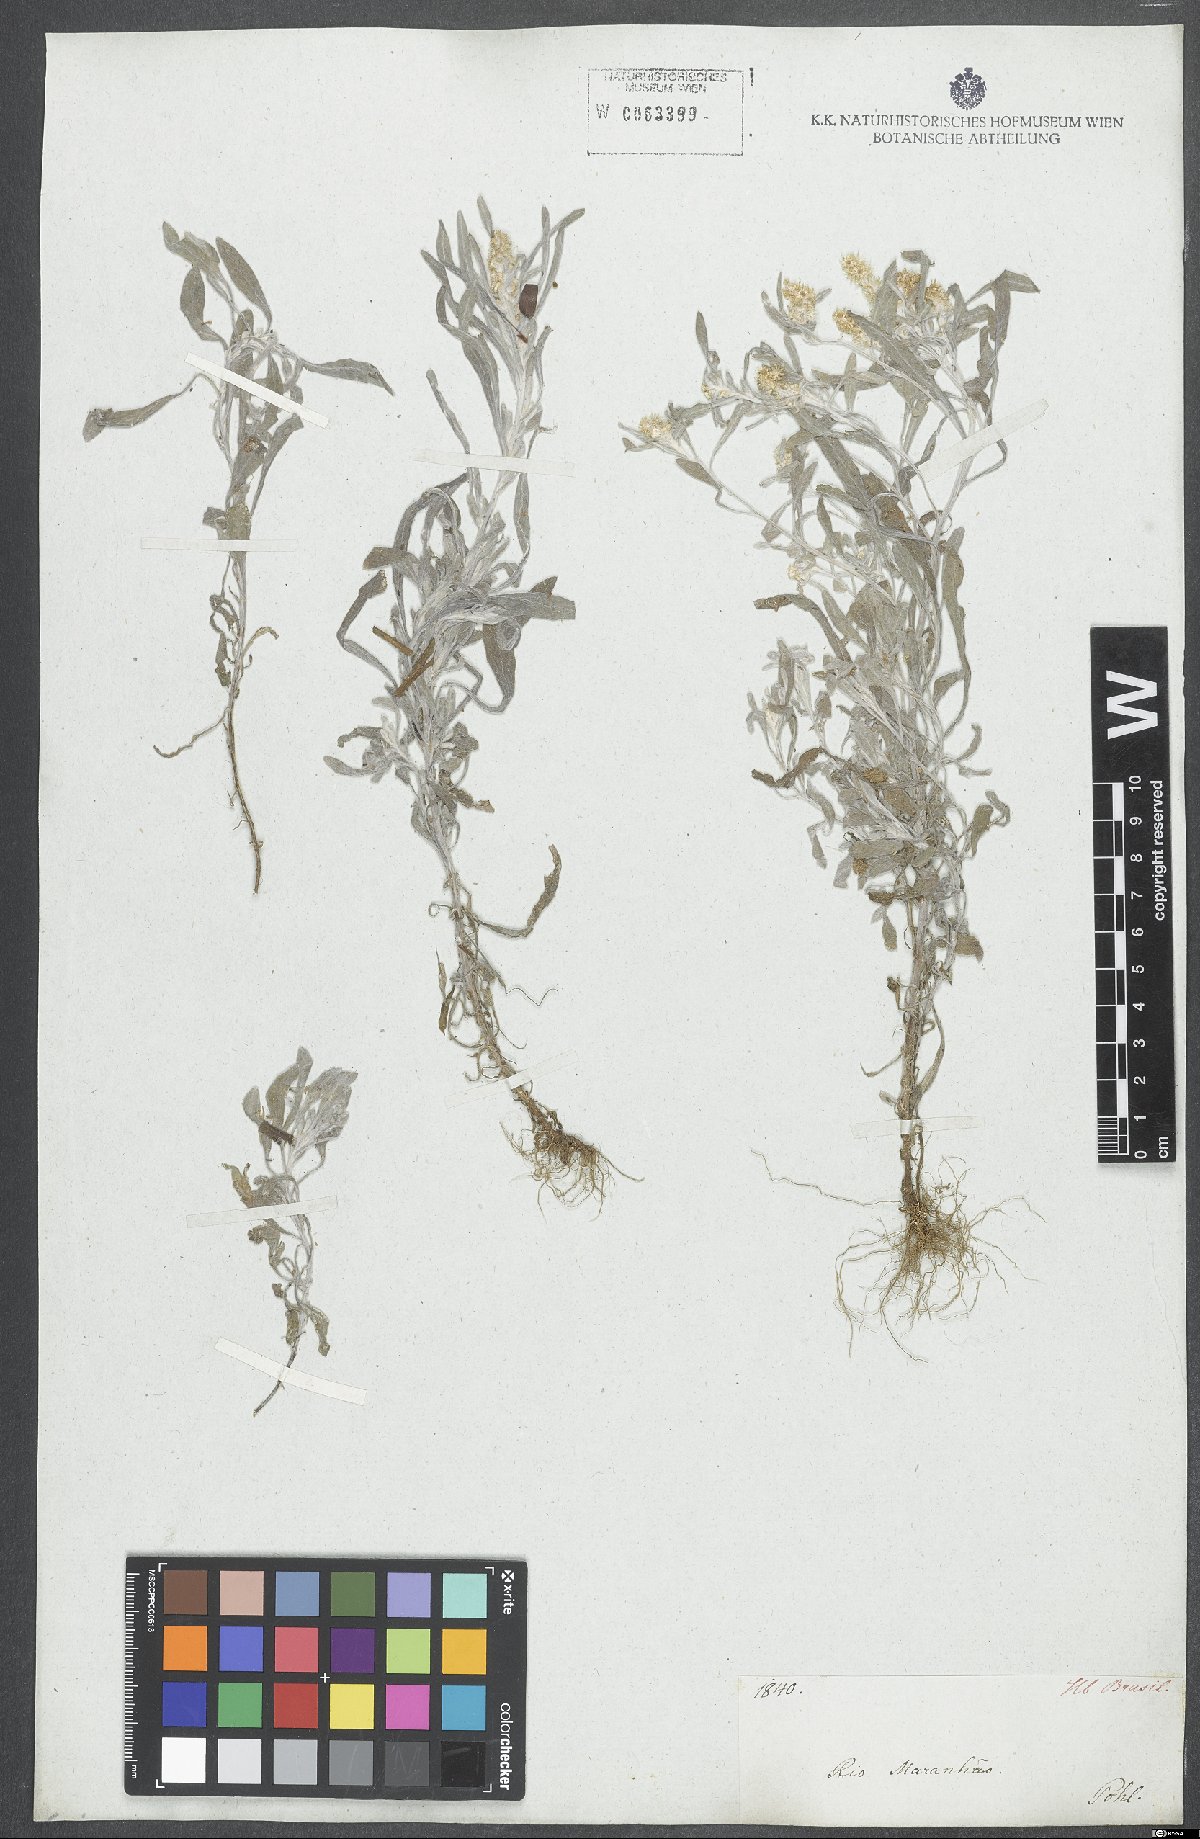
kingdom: Plantae
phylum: Tracheophyta
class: Magnoliopsida
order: Asterales
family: Asteraceae
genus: Gnaphalium
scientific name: Gnaphalium
